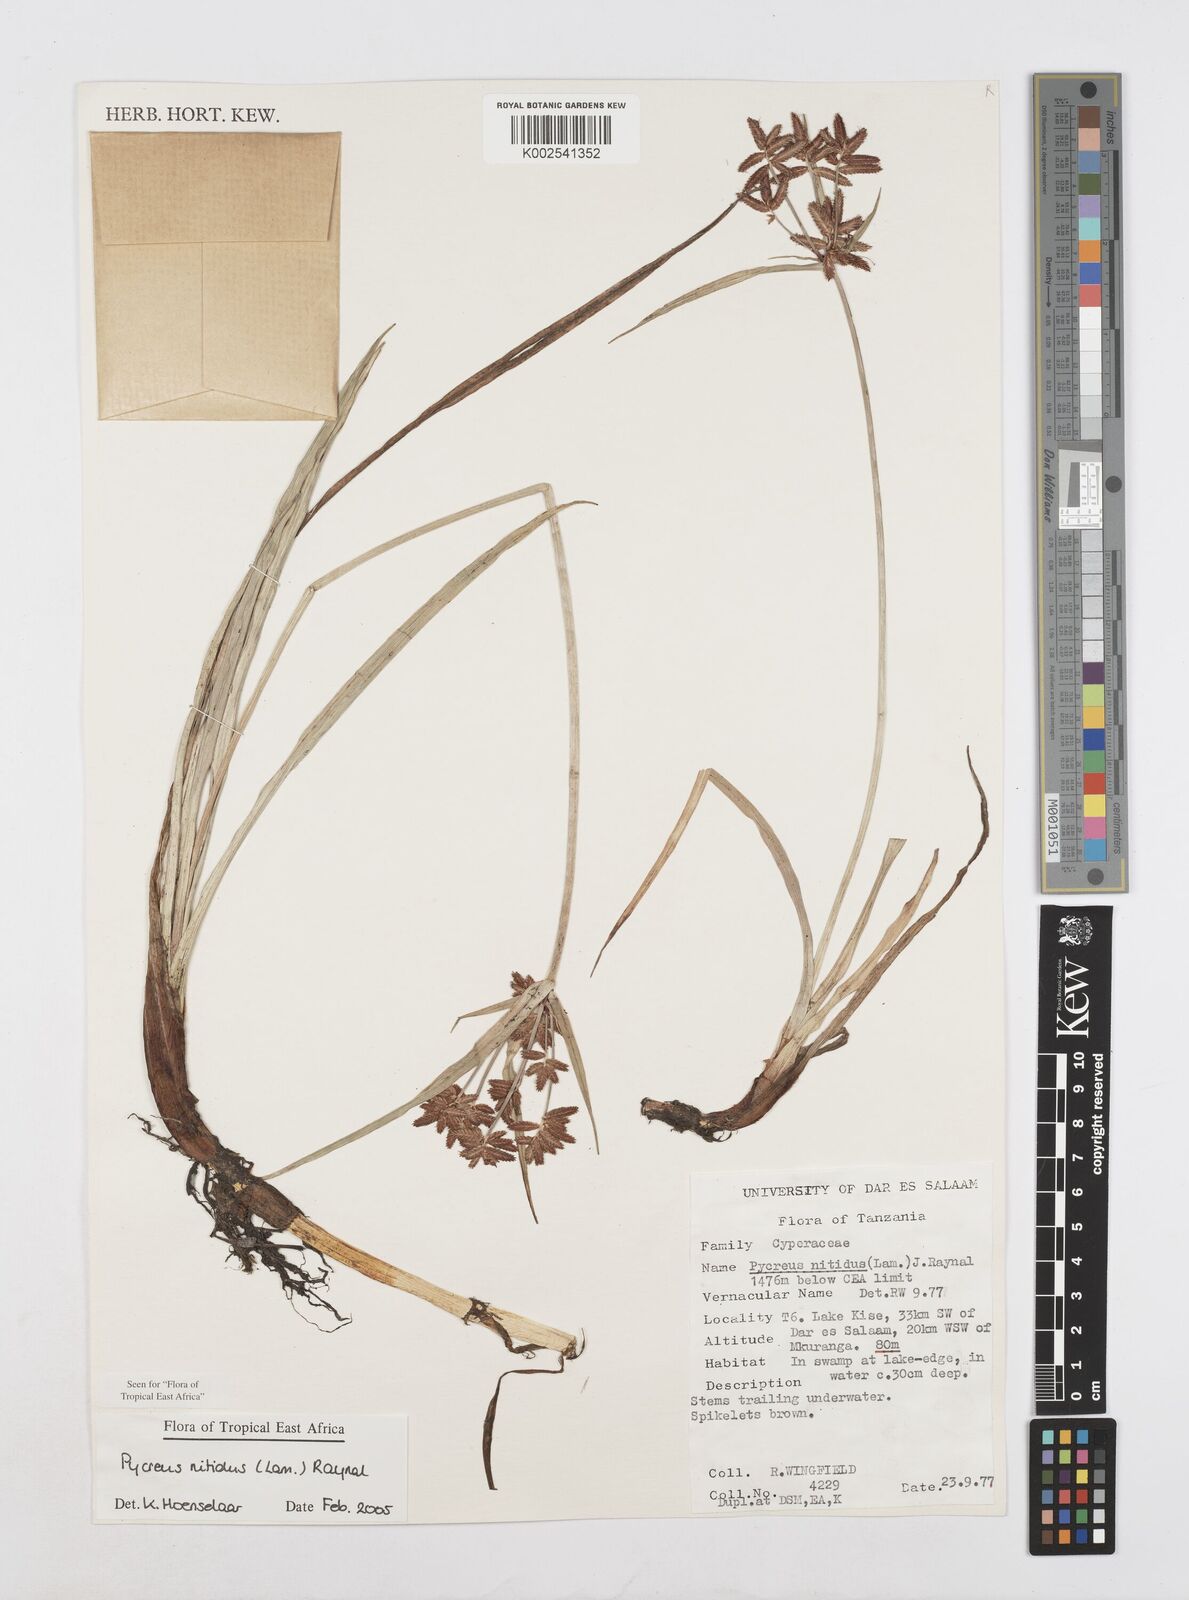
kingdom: Plantae
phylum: Tracheophyta
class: Liliopsida
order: Poales
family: Cyperaceae
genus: Cyperus
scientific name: Cyperus nitidus
